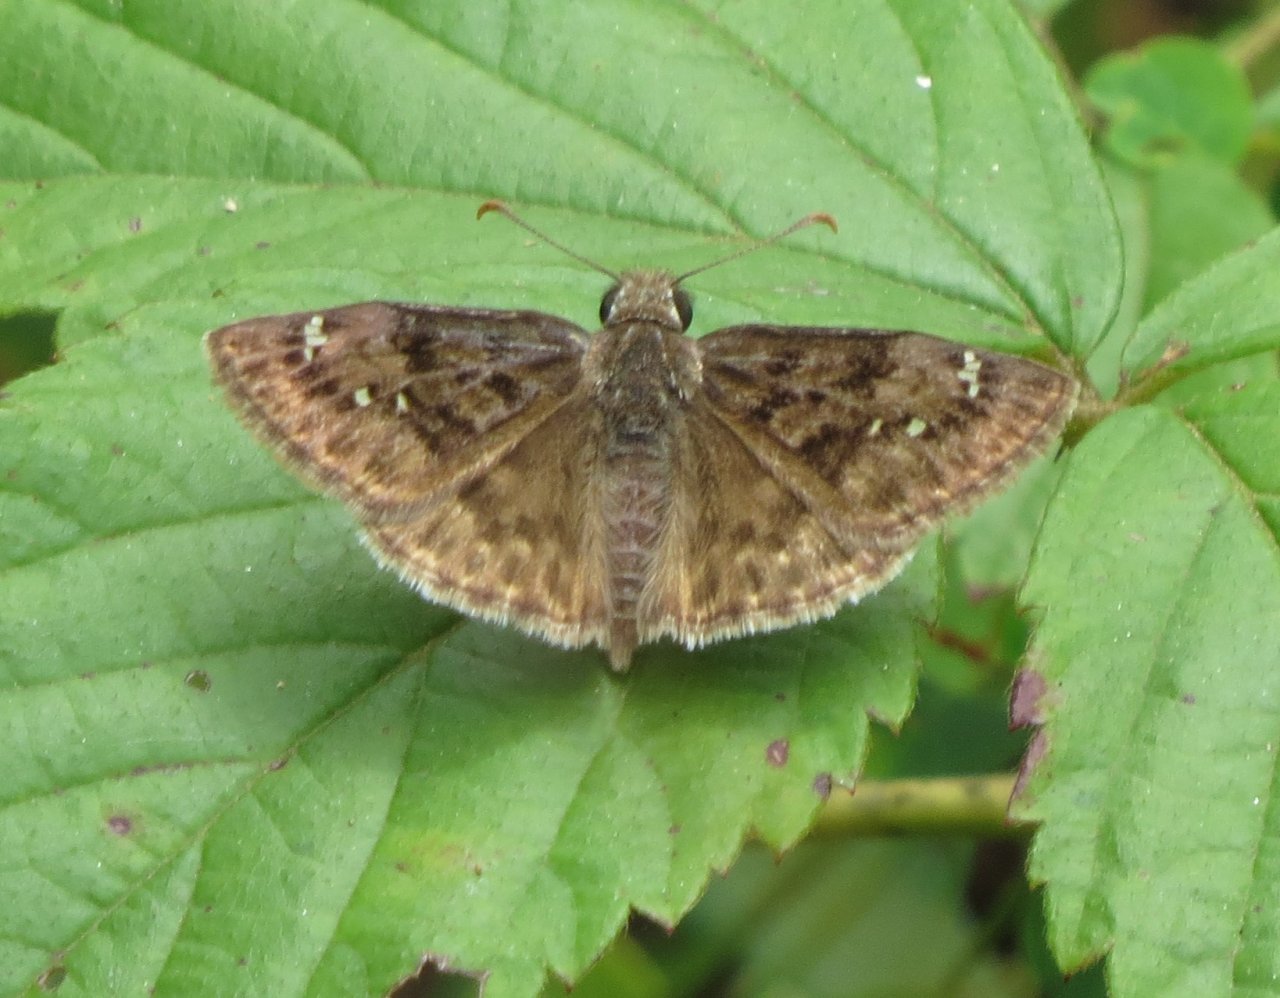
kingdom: Animalia
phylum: Arthropoda
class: Insecta
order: Lepidoptera
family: Hesperiidae
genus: Erynnis
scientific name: Erynnis martialis
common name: Mottled Duskywing
